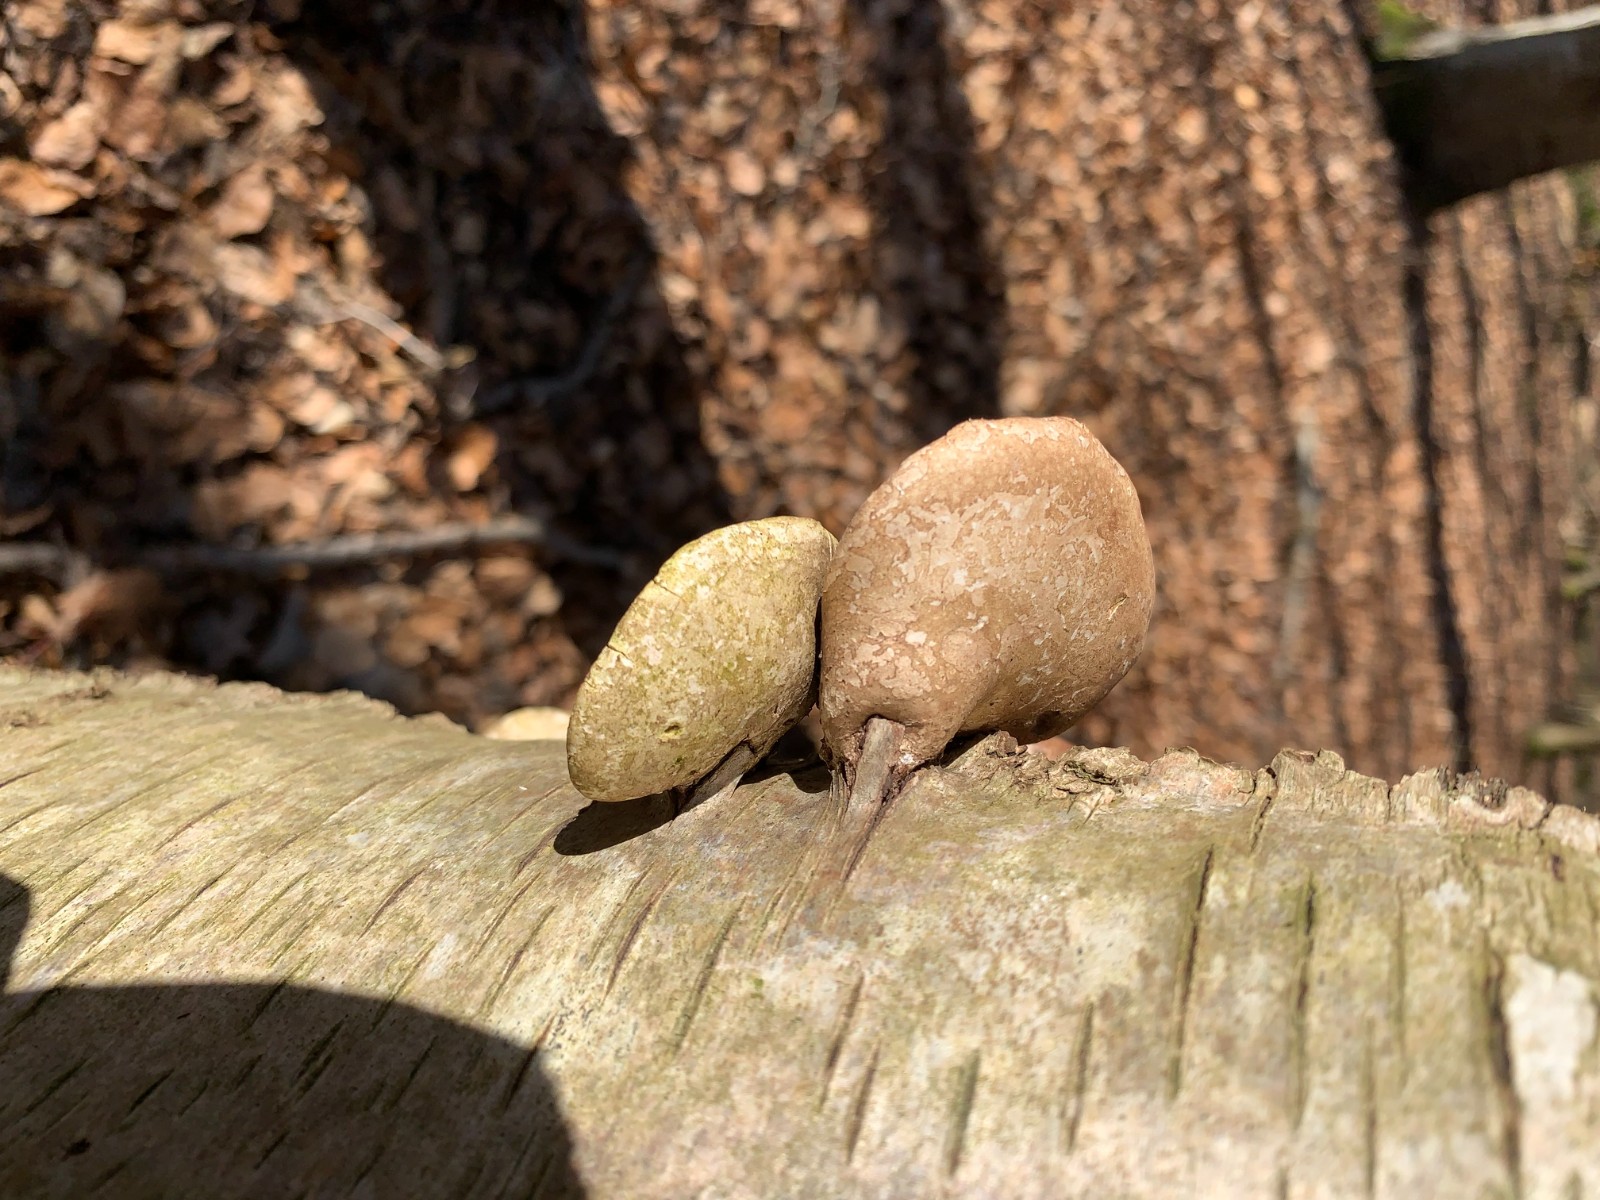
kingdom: Fungi
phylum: Basidiomycota
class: Agaricomycetes
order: Polyporales
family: Fomitopsidaceae
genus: Fomitopsis
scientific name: Fomitopsis betulina
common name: birkeporesvamp
